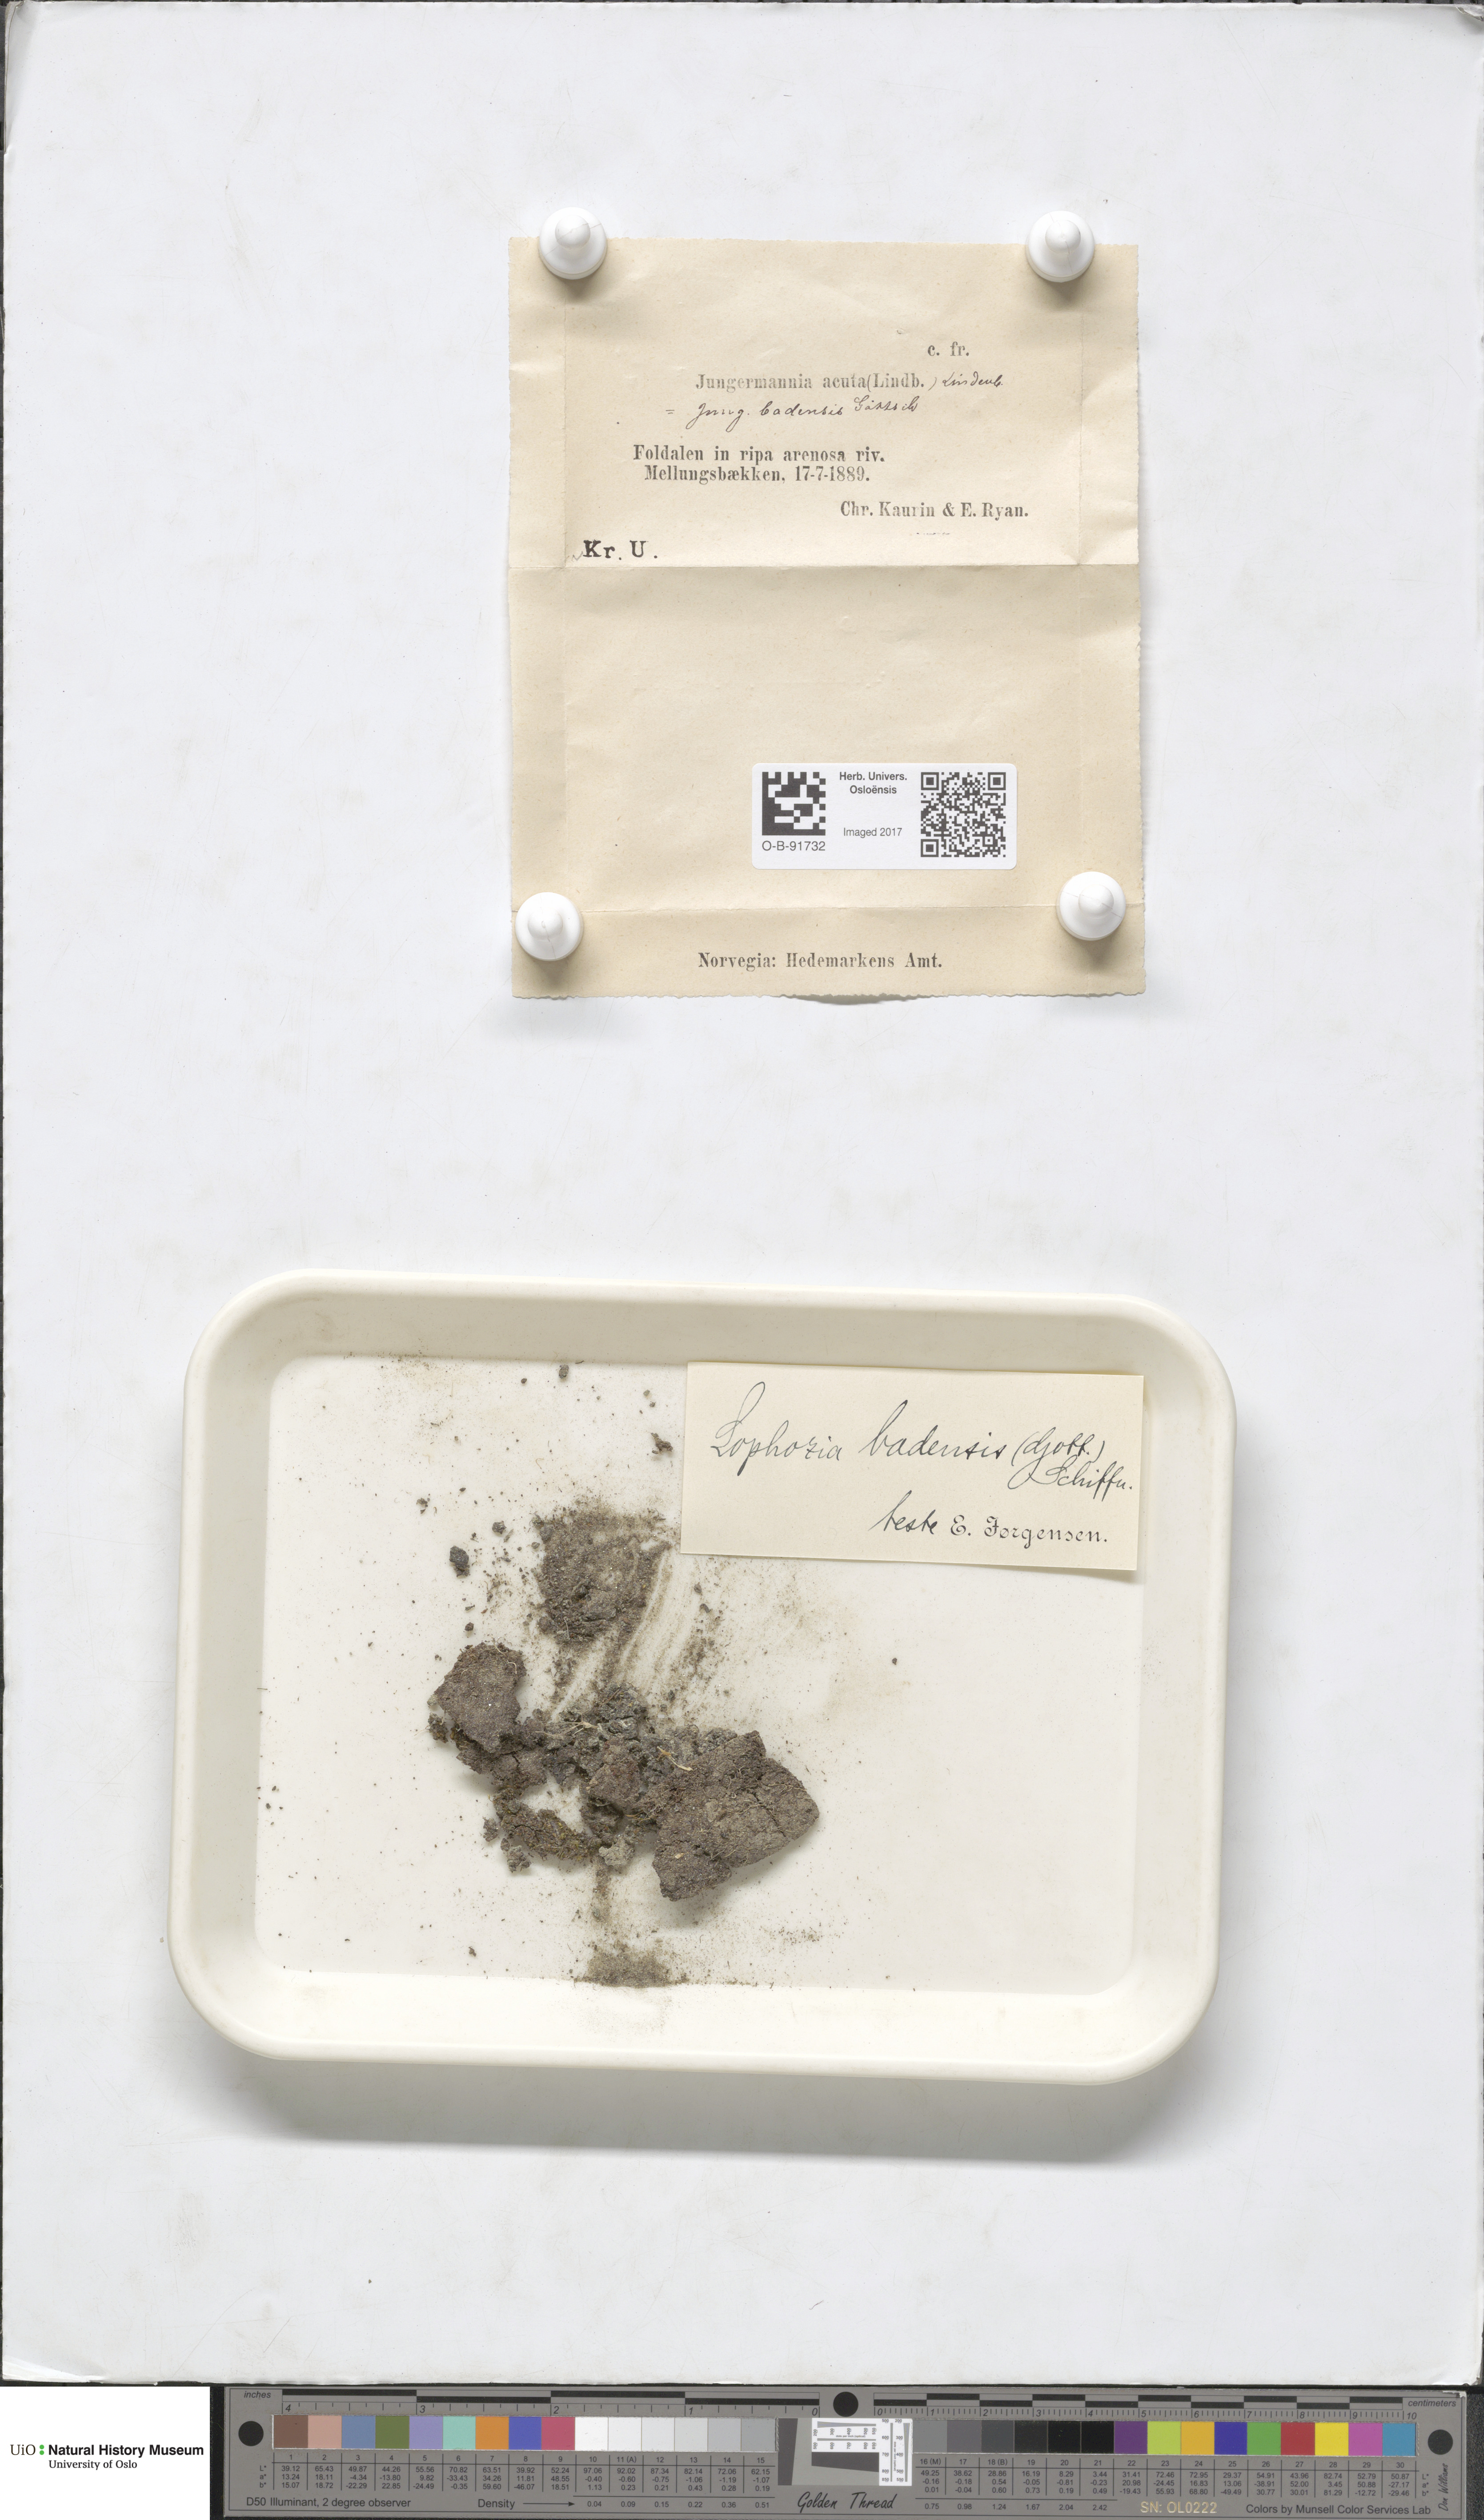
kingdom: Plantae
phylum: Marchantiophyta
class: Jungermanniopsida
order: Jungermanniales
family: Jungermanniaceae
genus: Mesoptychia
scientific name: Mesoptychia badensis
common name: Scarce notchwort
